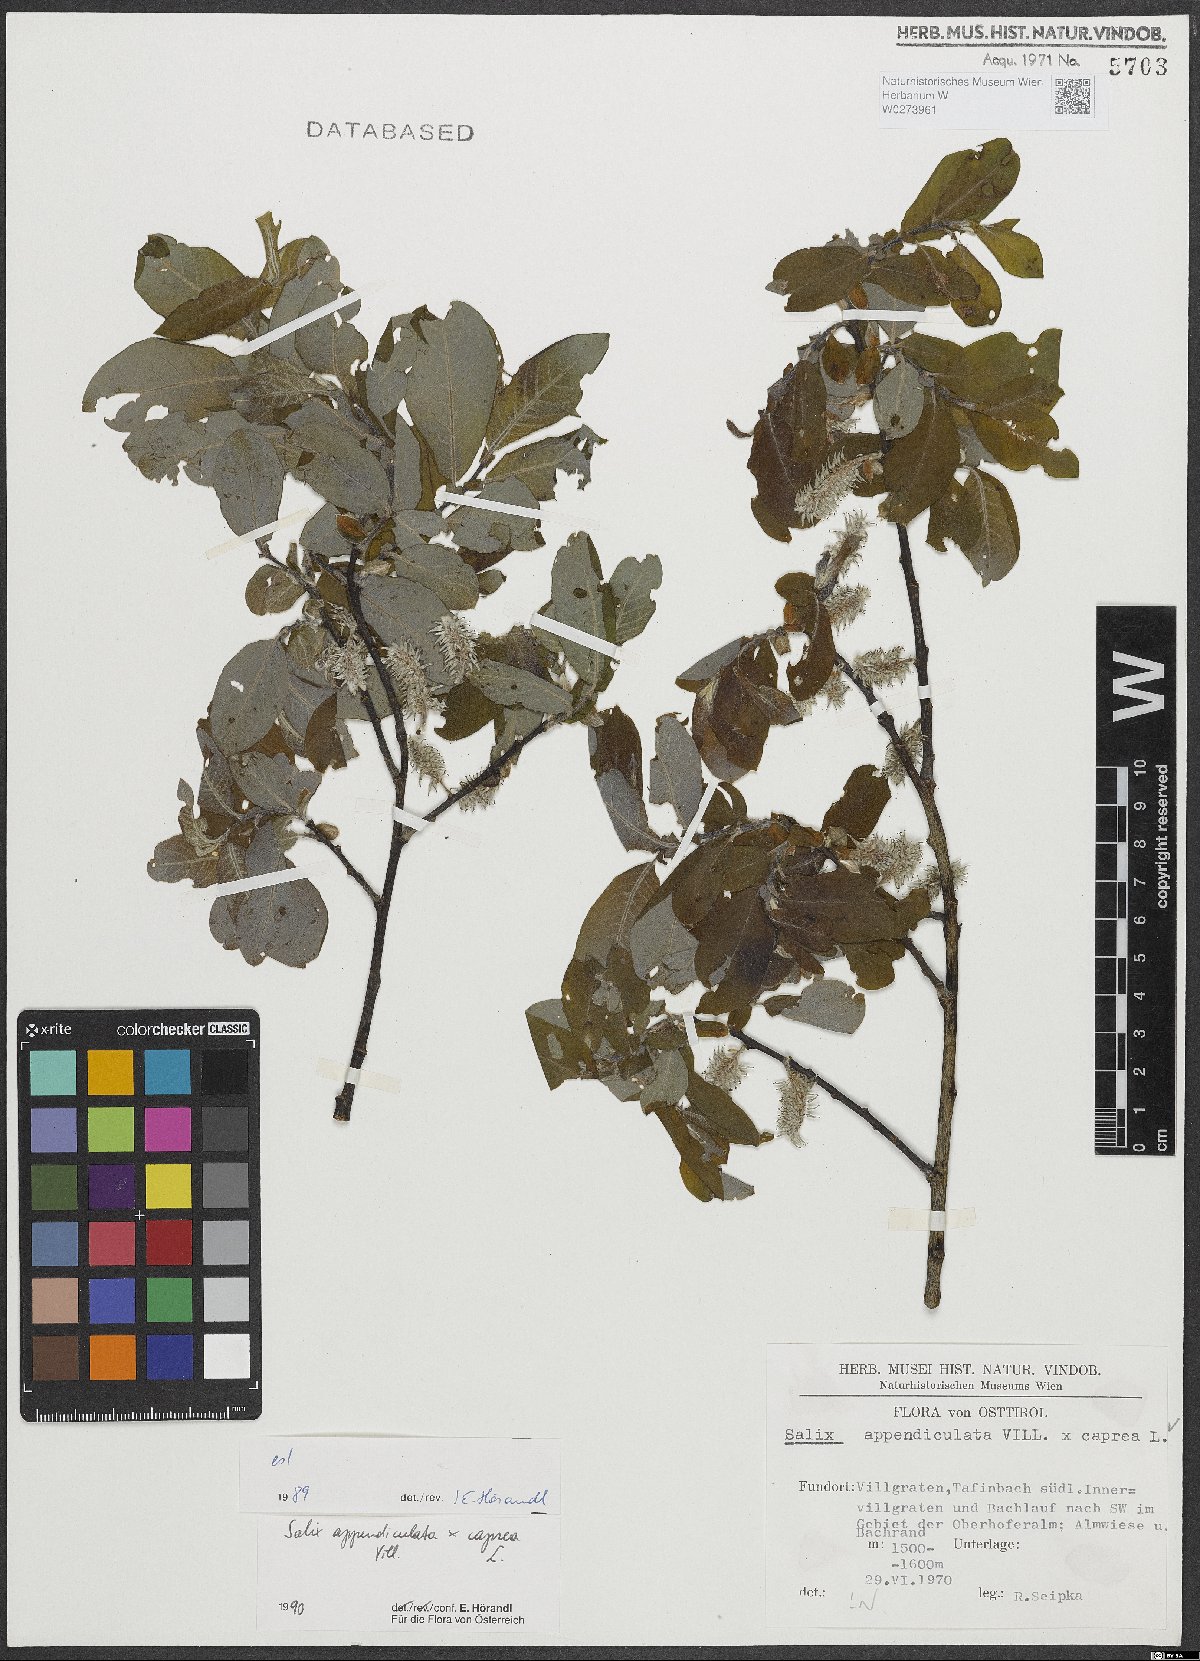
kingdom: Plantae
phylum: Tracheophyta
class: Magnoliopsida
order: Malpighiales
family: Salicaceae
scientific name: Salicaceae
